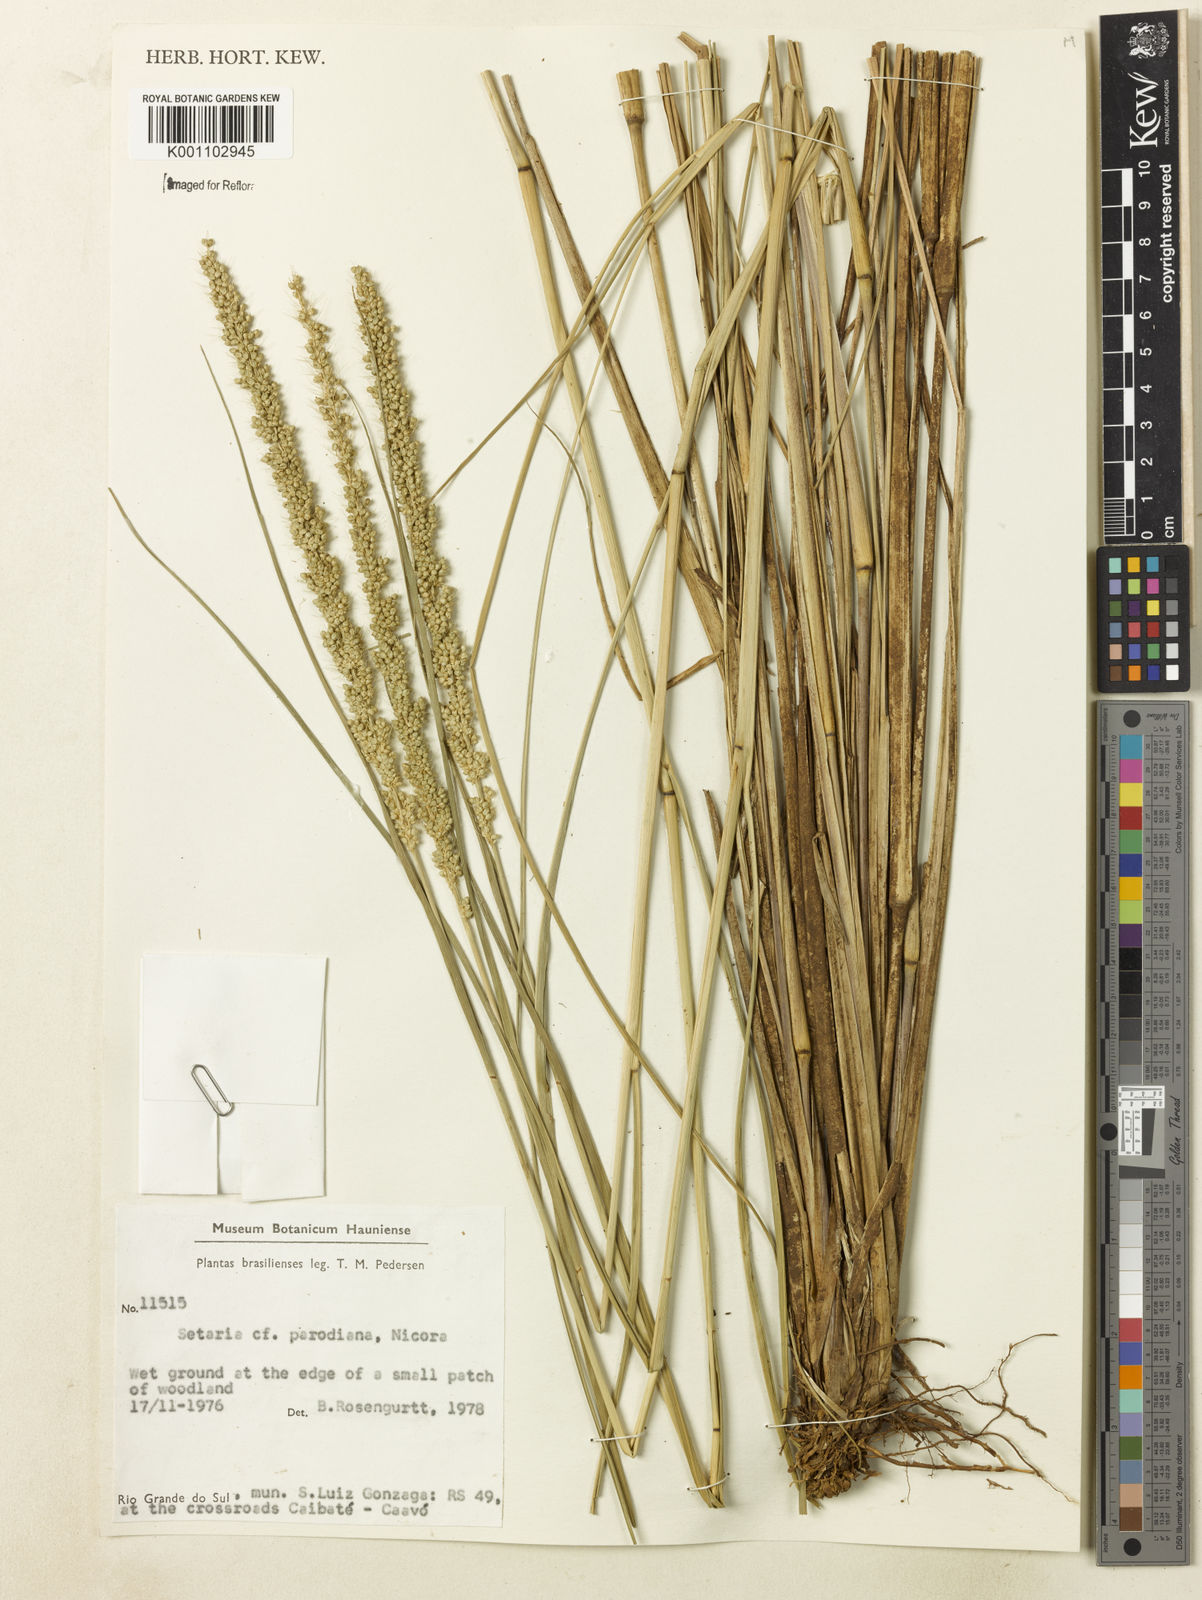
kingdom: Plantae
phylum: Tracheophyta
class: Liliopsida
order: Poales
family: Poaceae
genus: Setaria
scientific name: Setaria globulifera
